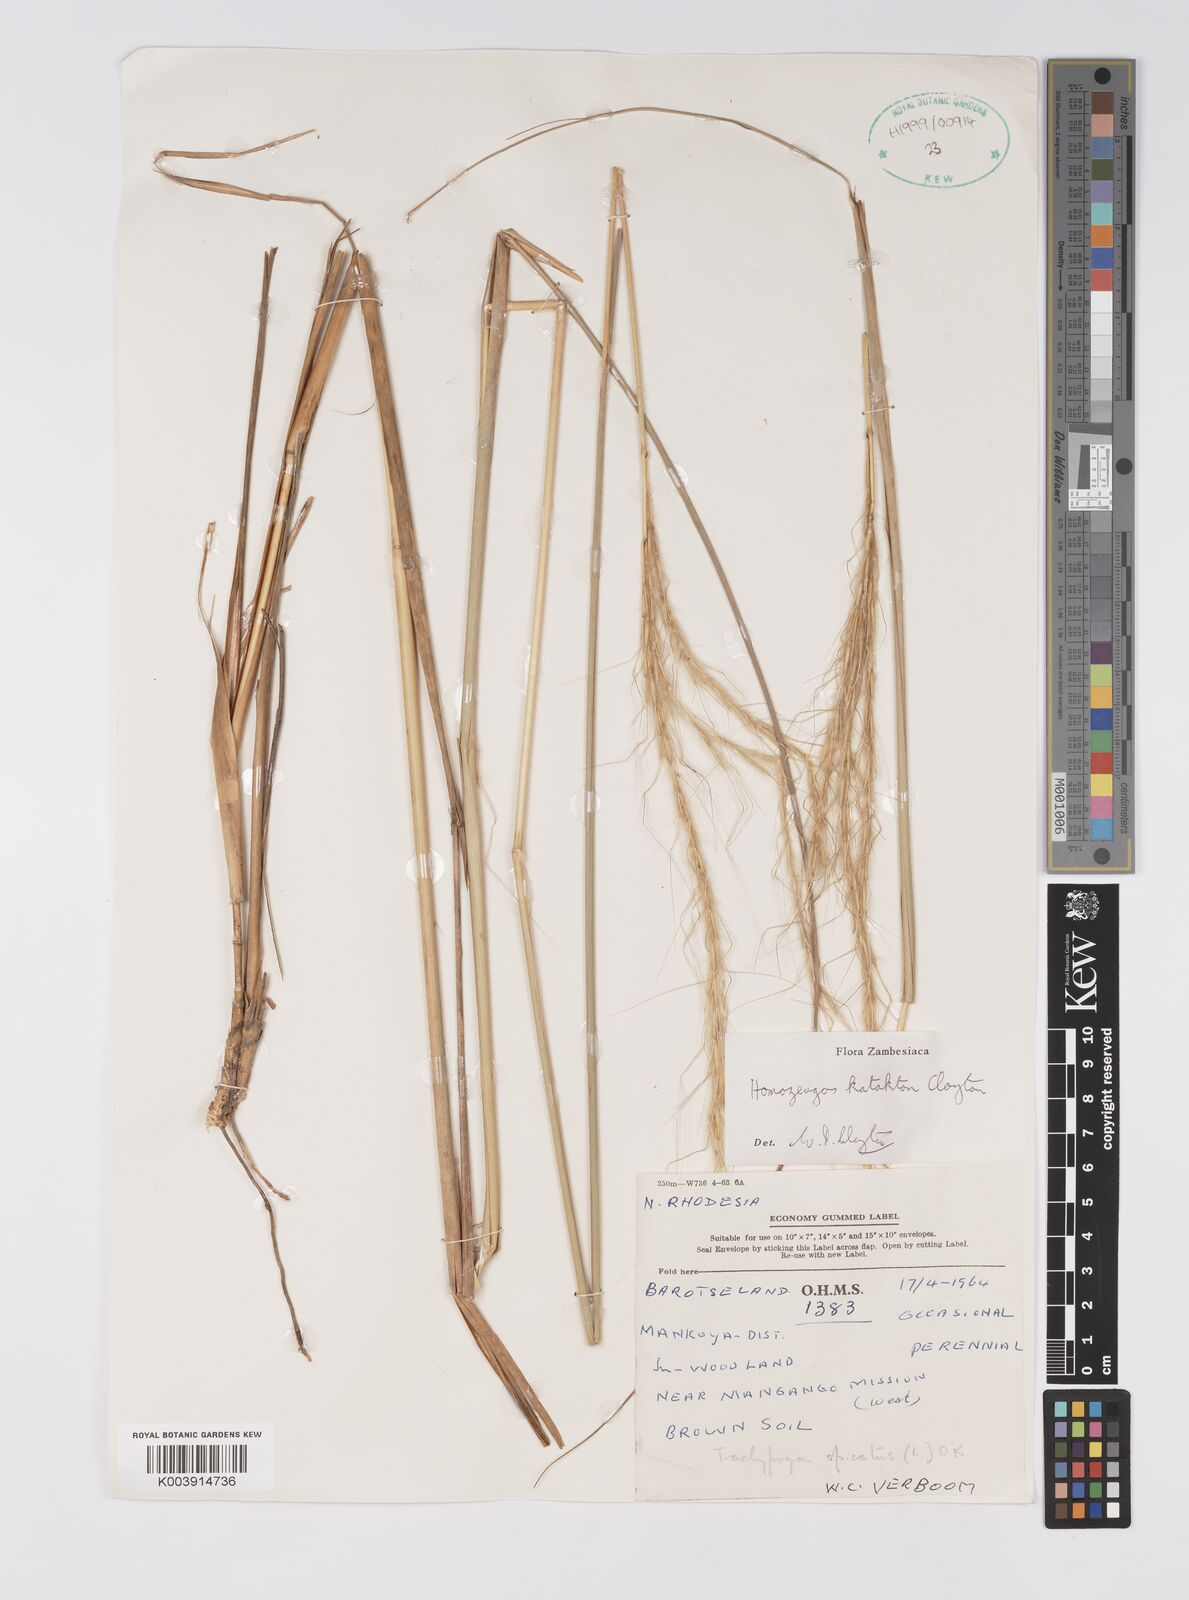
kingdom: Plantae
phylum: Tracheophyta
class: Liliopsida
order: Poales
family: Poaceae
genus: Homozeugos
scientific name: Homozeugos eylesii
